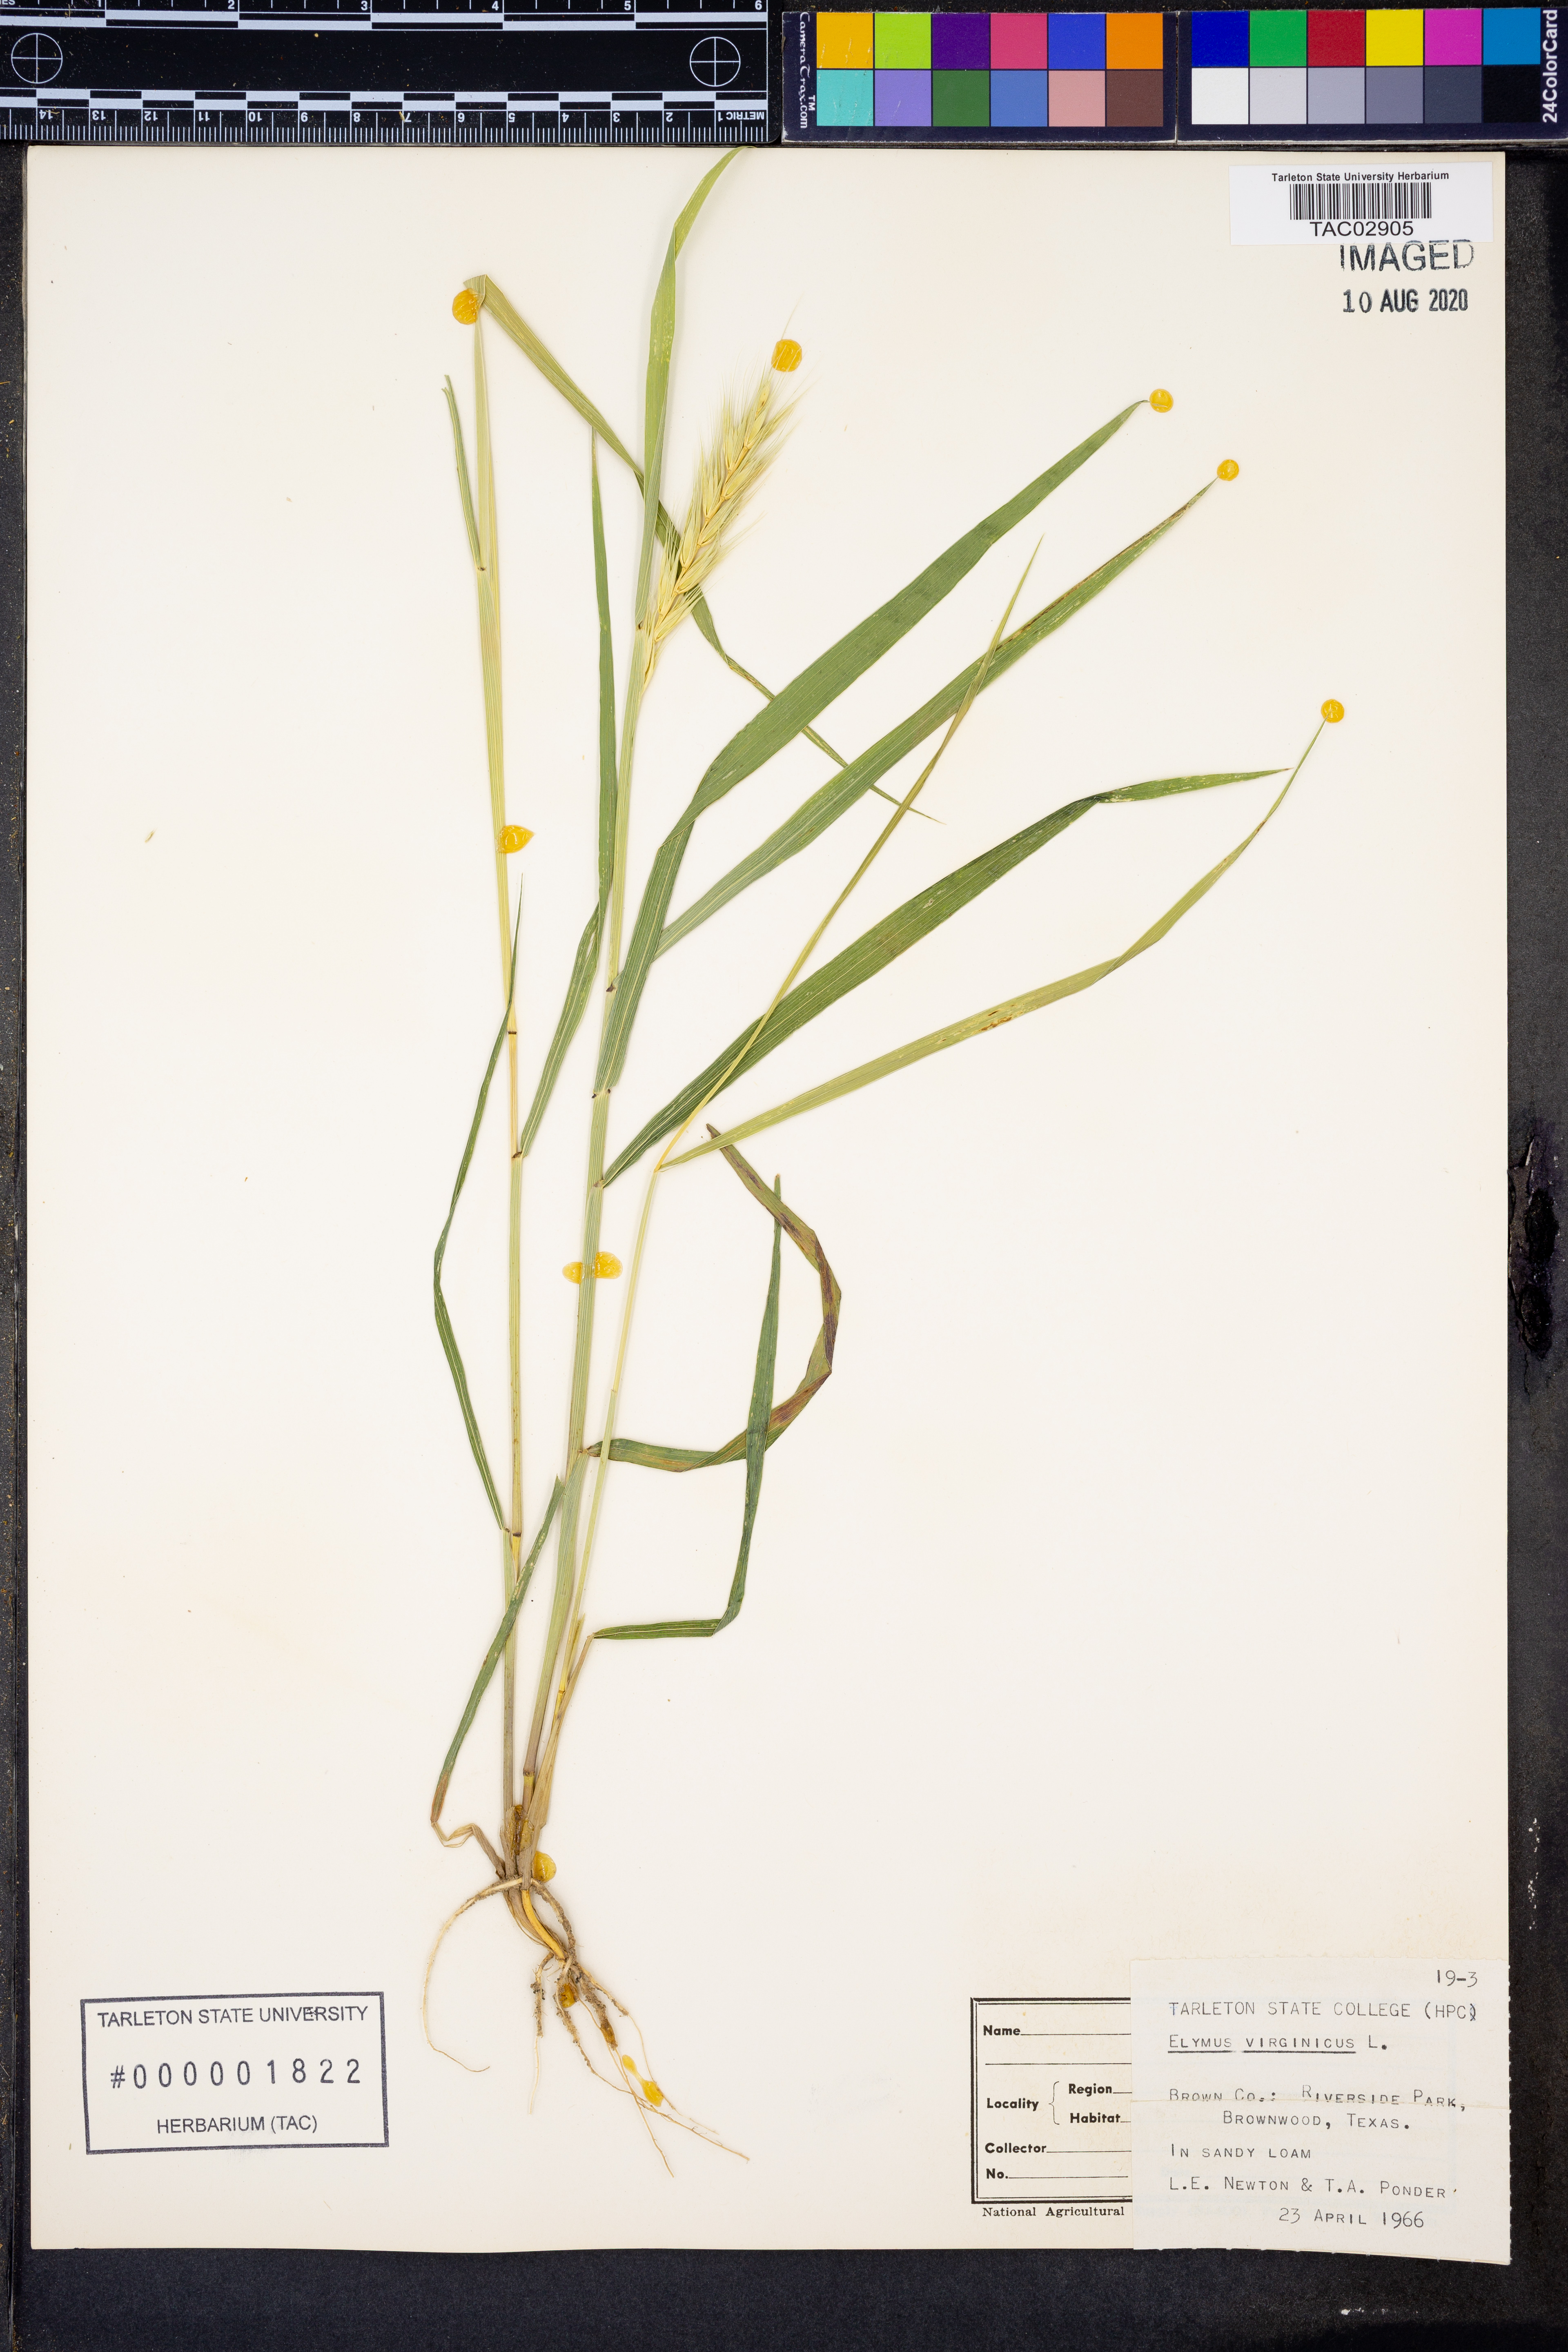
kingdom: Plantae
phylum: Tracheophyta
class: Liliopsida
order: Poales
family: Poaceae
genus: Elymus
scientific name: Elymus virginicus
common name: Common eastern wildrye
